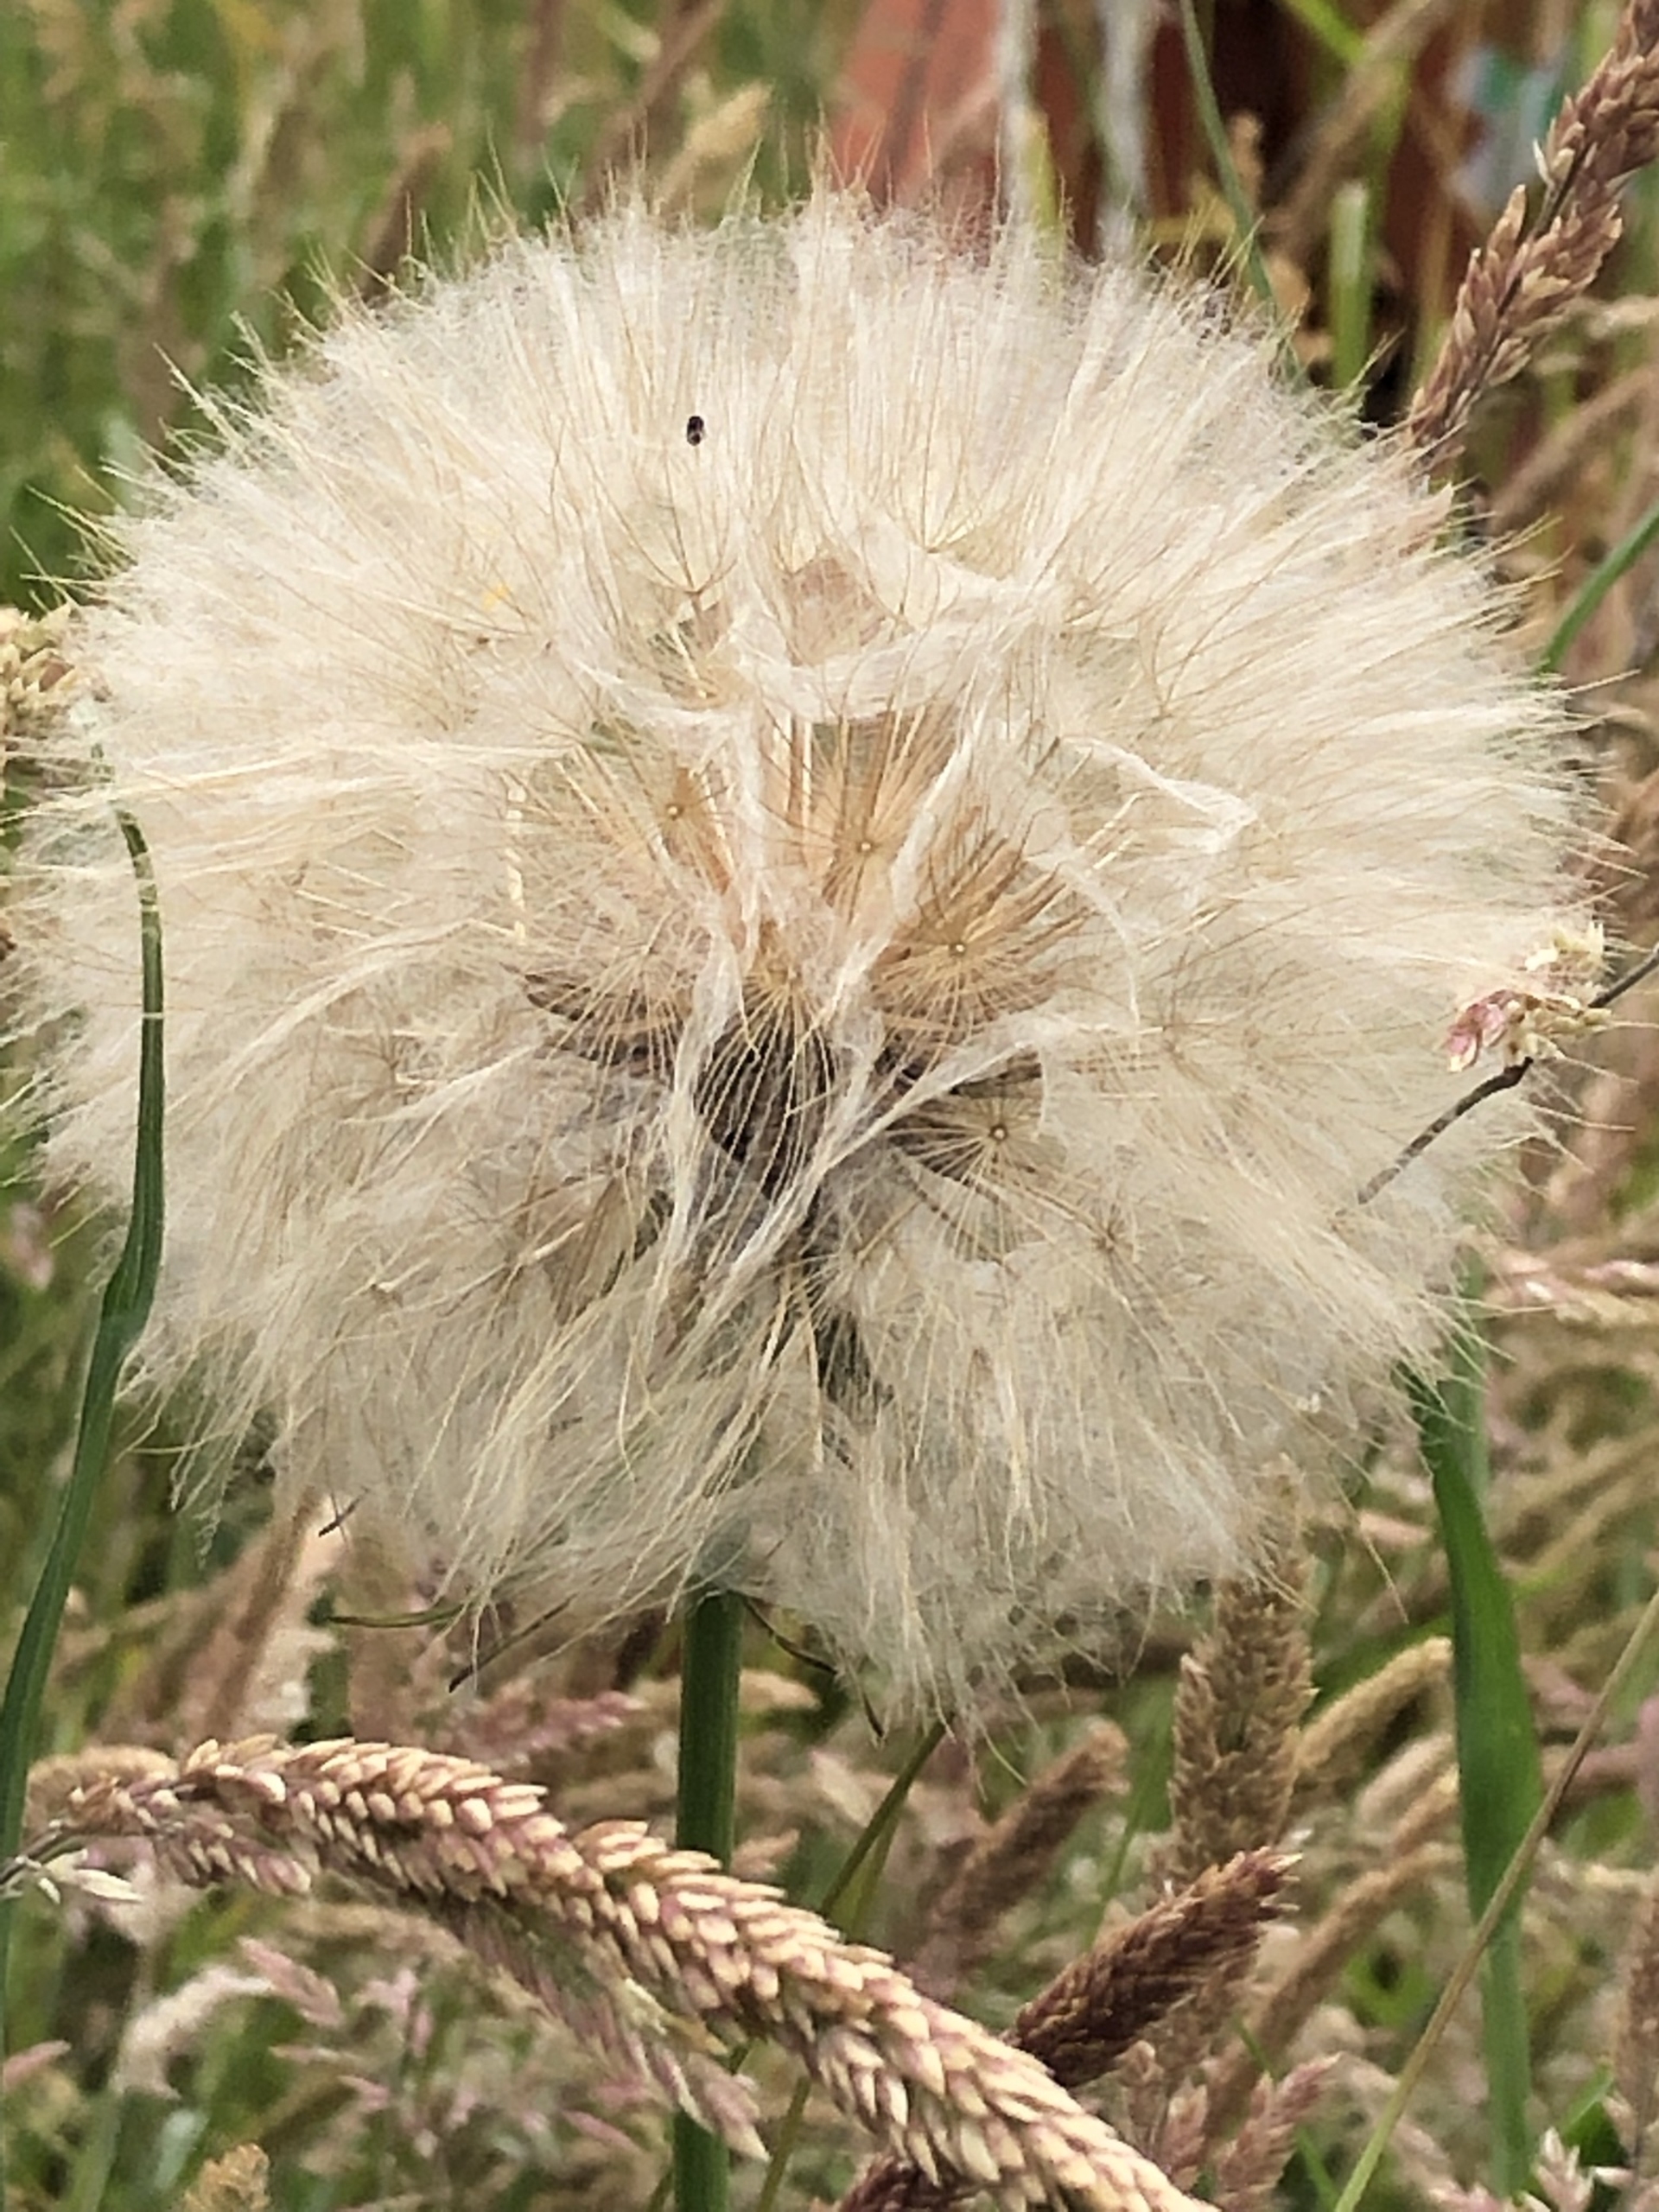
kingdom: Plantae
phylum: Tracheophyta
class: Magnoliopsida
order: Asterales
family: Asteraceae
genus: Tragopogon
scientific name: Tragopogon pratensis
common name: Gedeskæg
